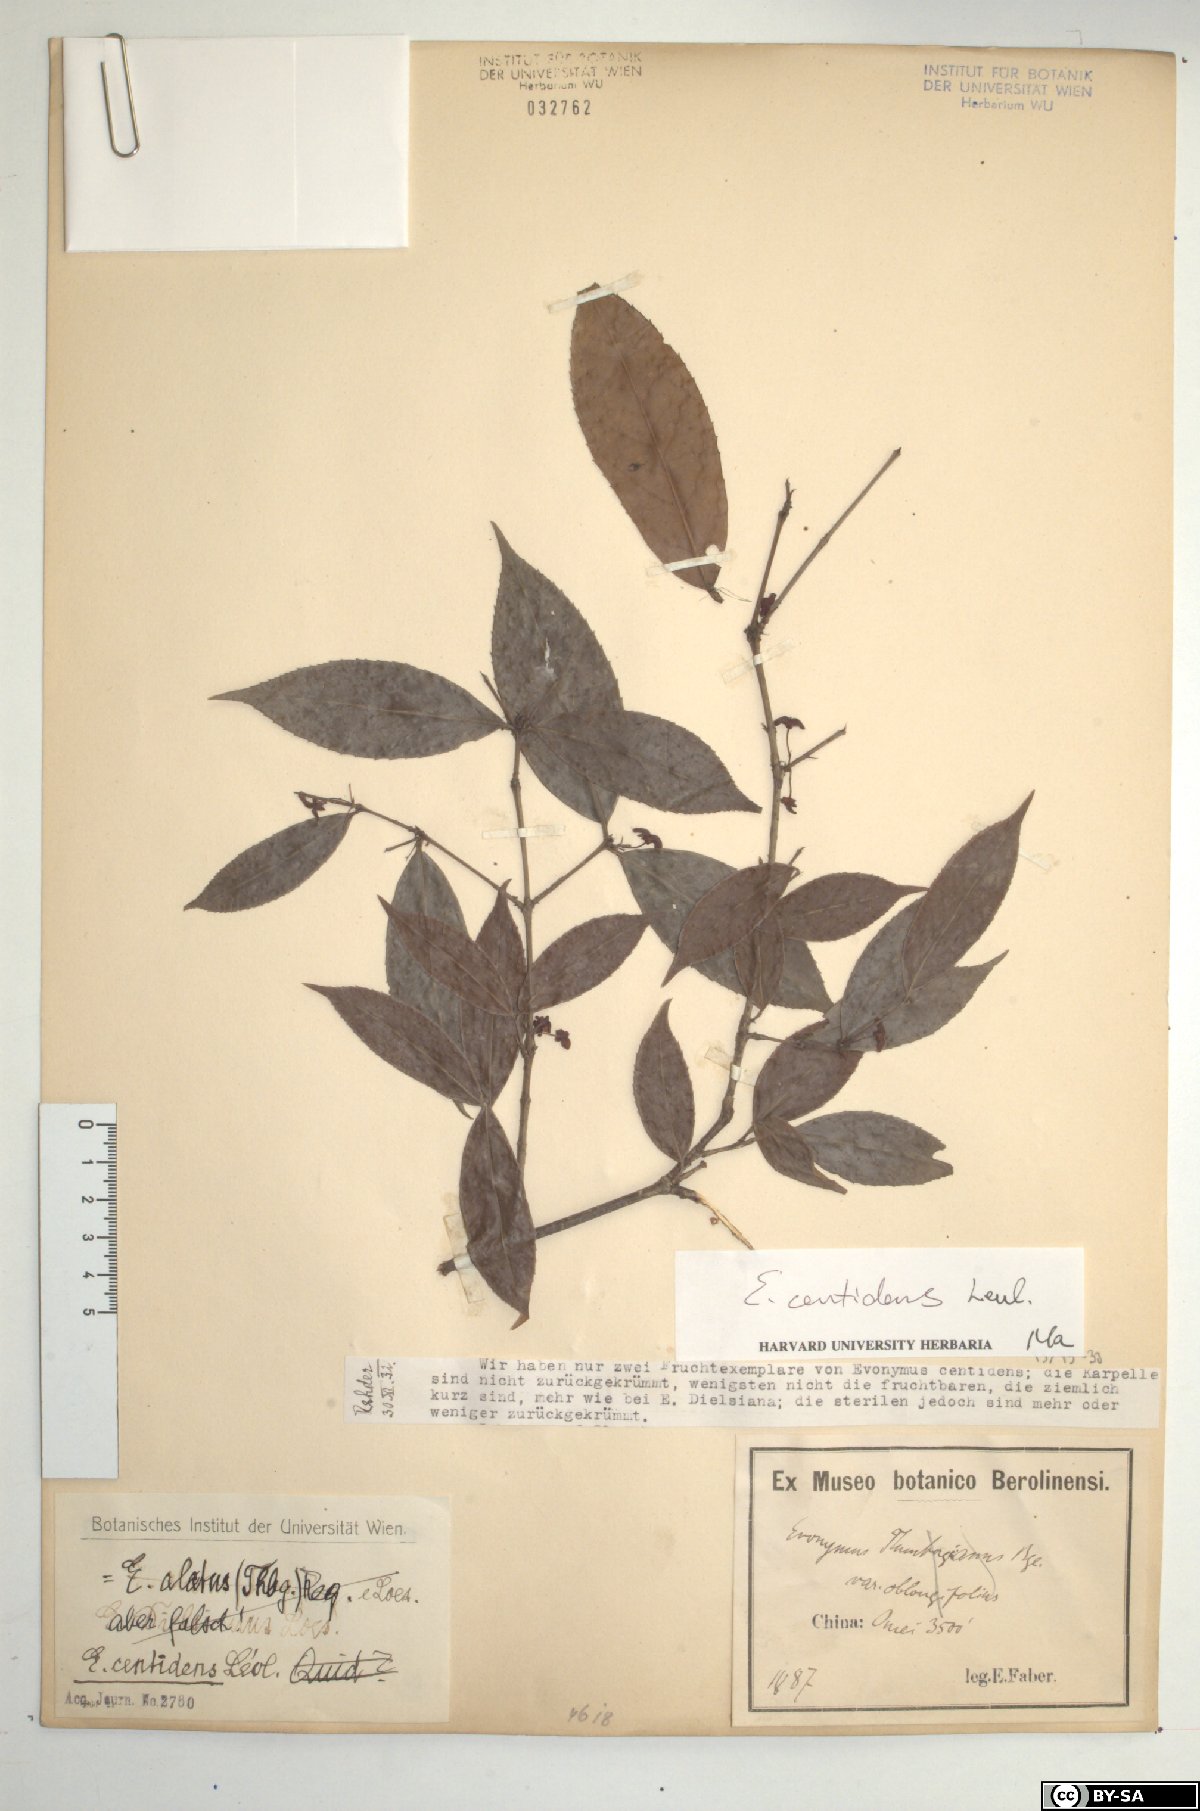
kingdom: Plantae
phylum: Tracheophyta
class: Magnoliopsida
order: Celastrales
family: Celastraceae
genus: Euonymus
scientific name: Euonymus centidens
